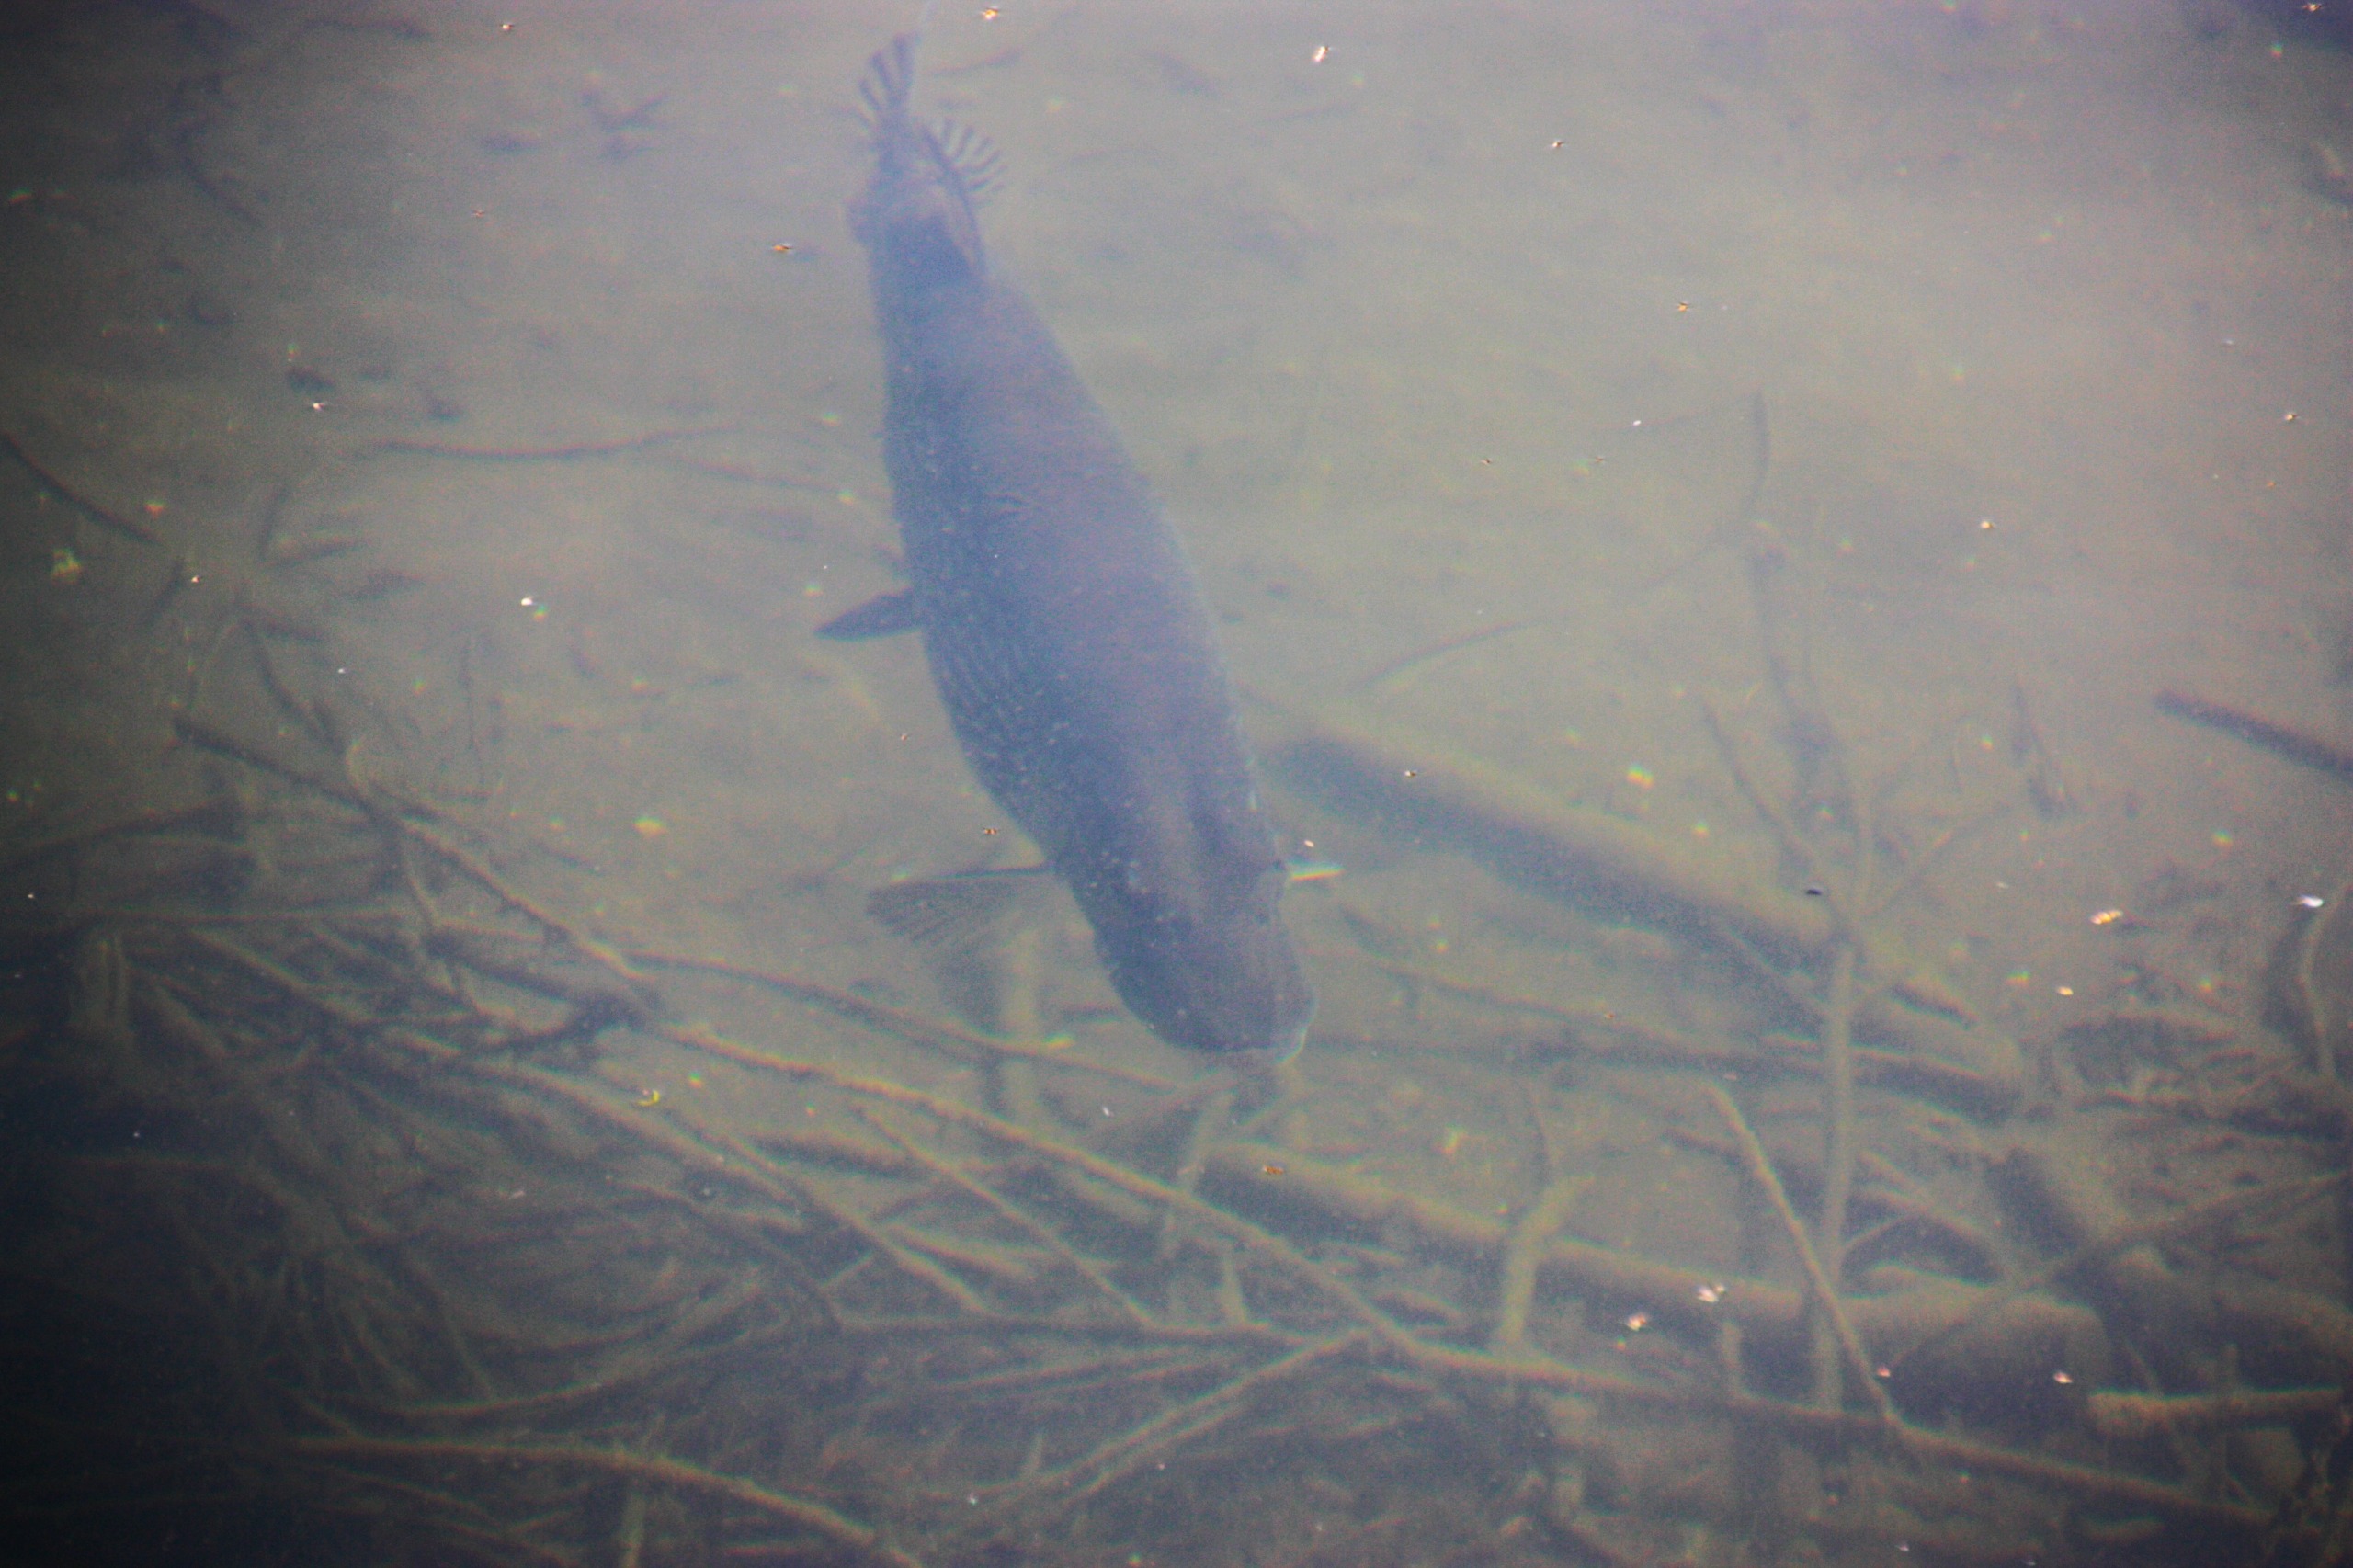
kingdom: Animalia
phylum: Chordata
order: Esociformes
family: Esocidae
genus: Esox
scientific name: Esox lucius
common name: Gedde
